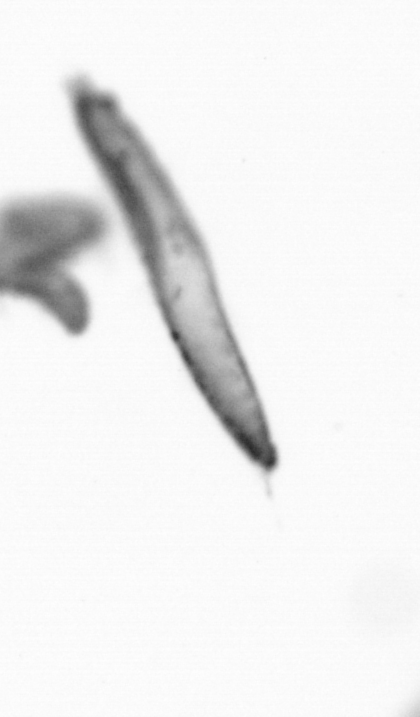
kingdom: Animalia
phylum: Annelida
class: Polychaeta
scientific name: Polychaeta
